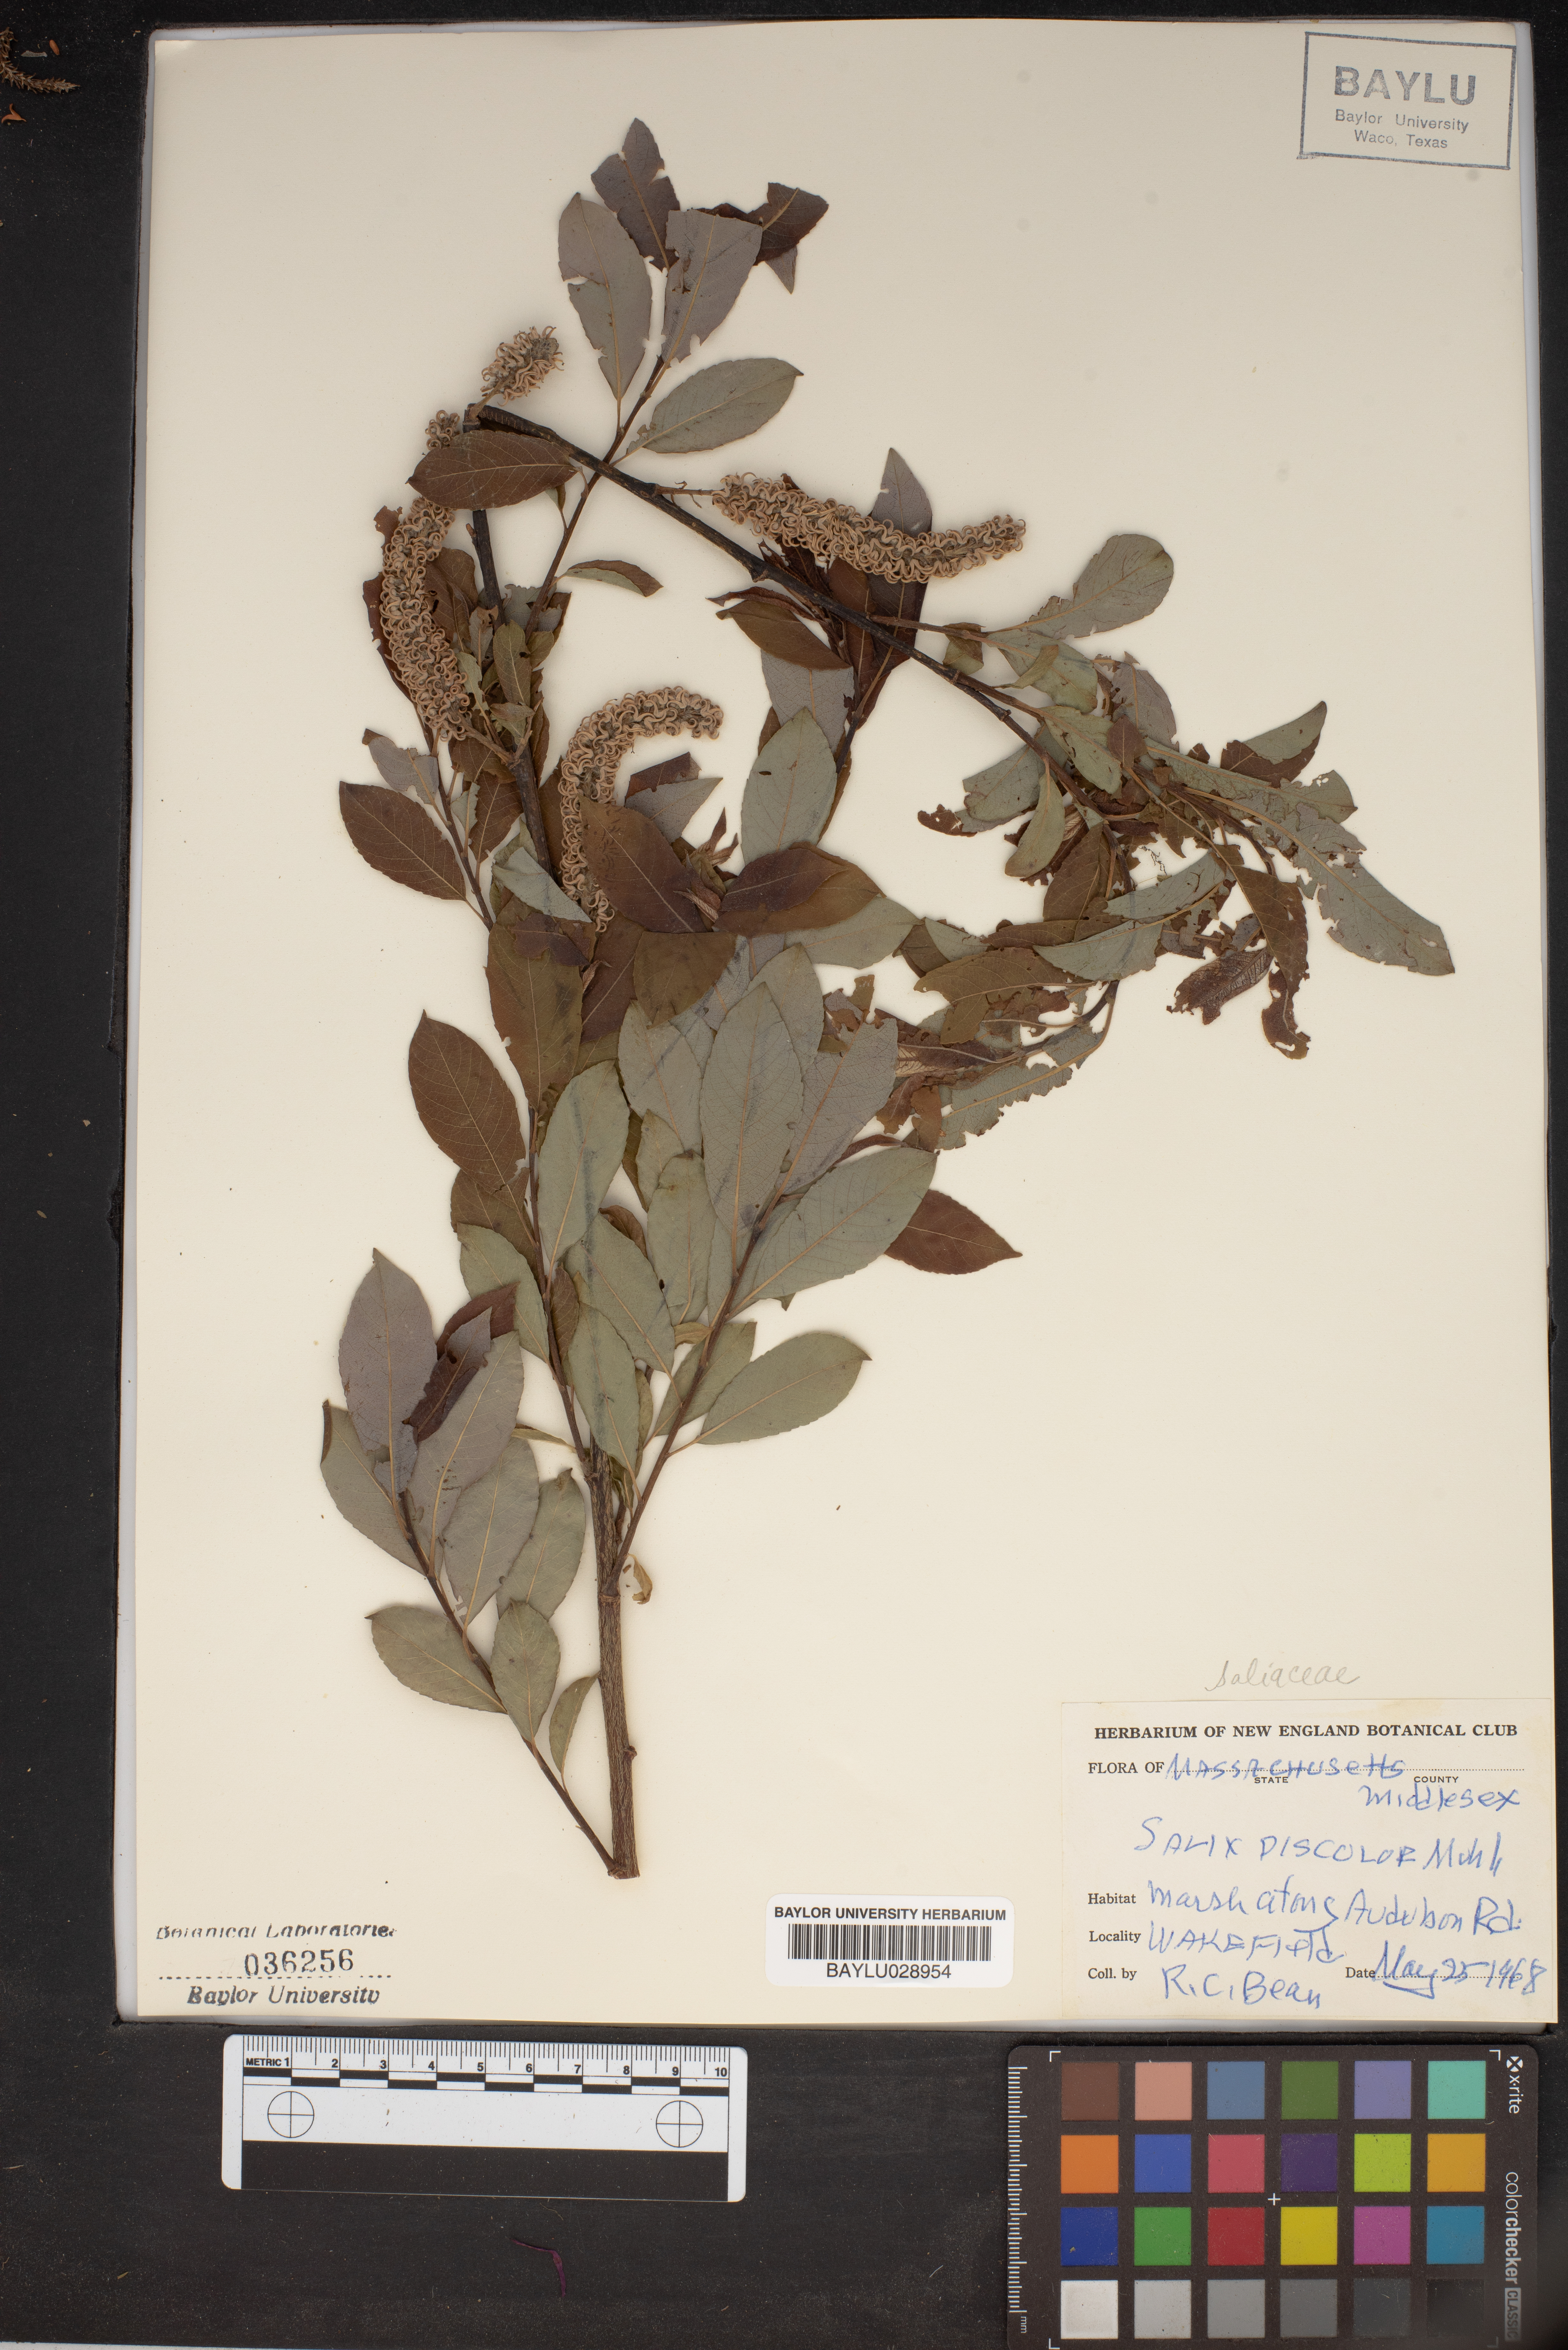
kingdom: Plantae
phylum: Tracheophyta
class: Magnoliopsida
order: Malpighiales
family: Salicaceae
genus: Salix
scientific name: Salix discolor
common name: Glaucous willow
